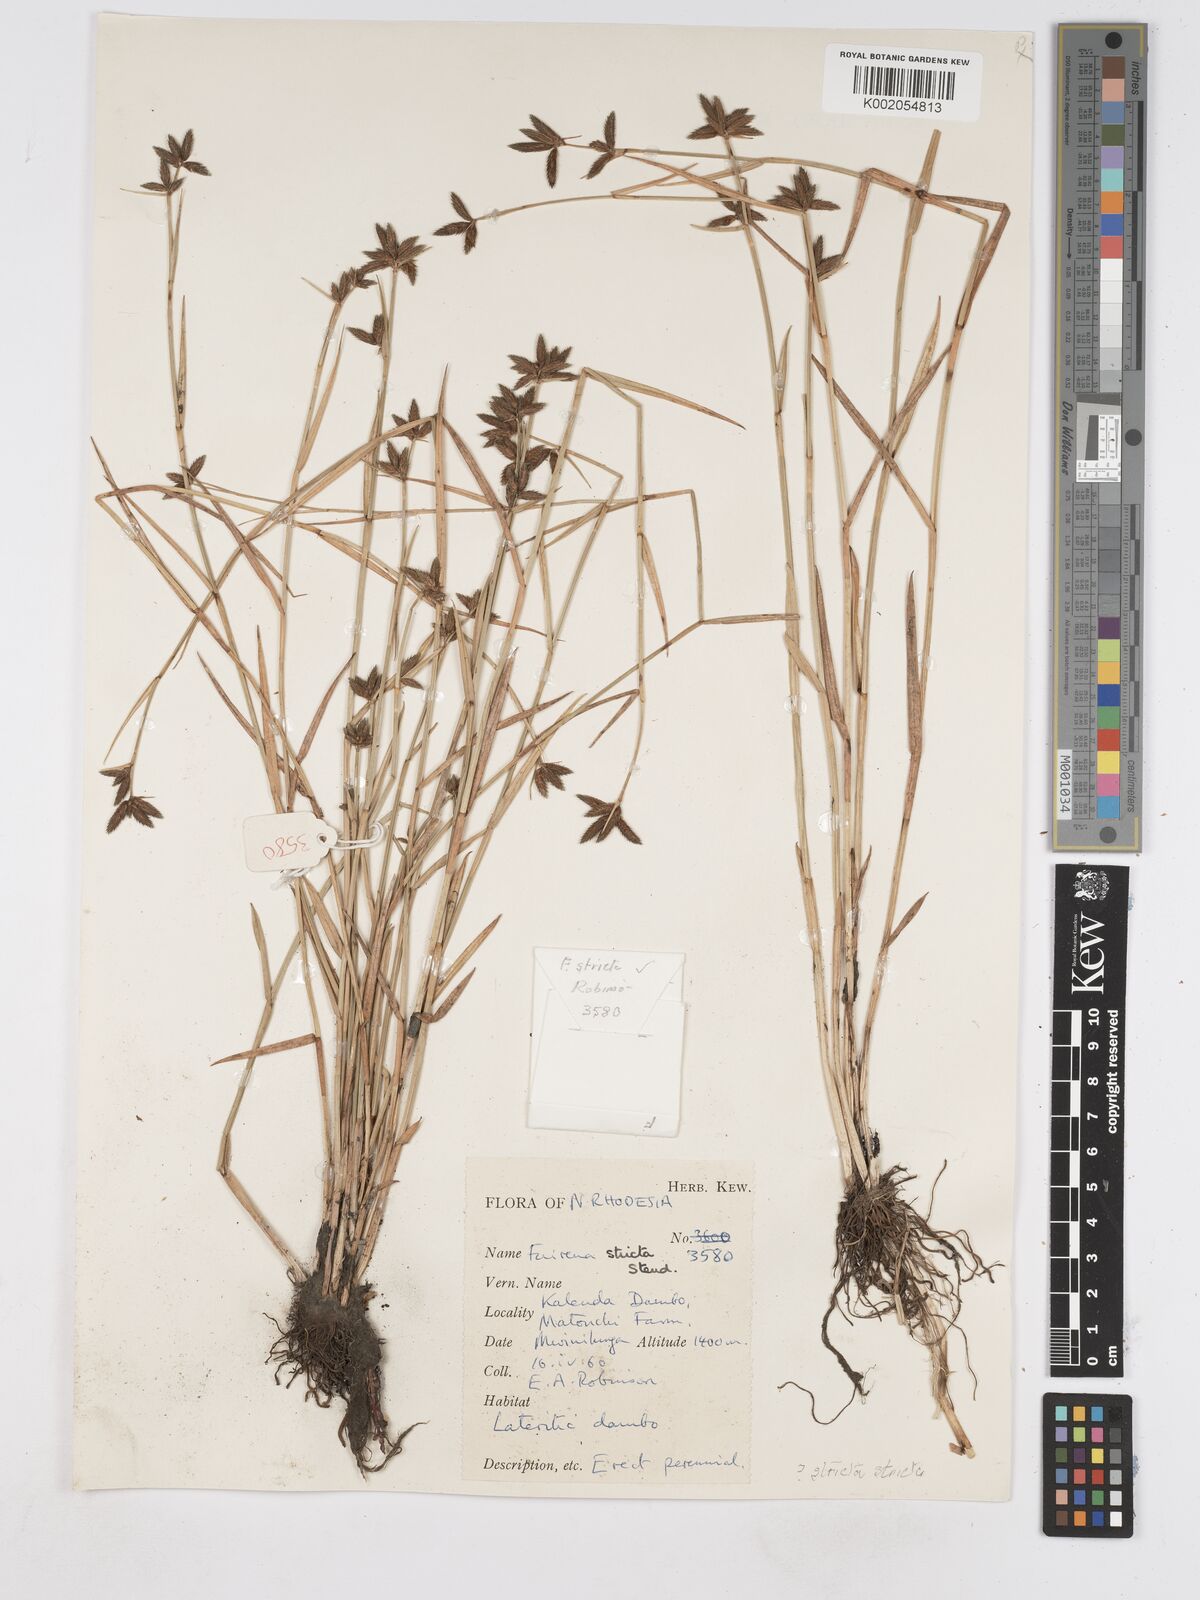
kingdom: Plantae
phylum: Tracheophyta
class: Liliopsida
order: Poales
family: Cyperaceae
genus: Fuirena
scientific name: Fuirena stricta
